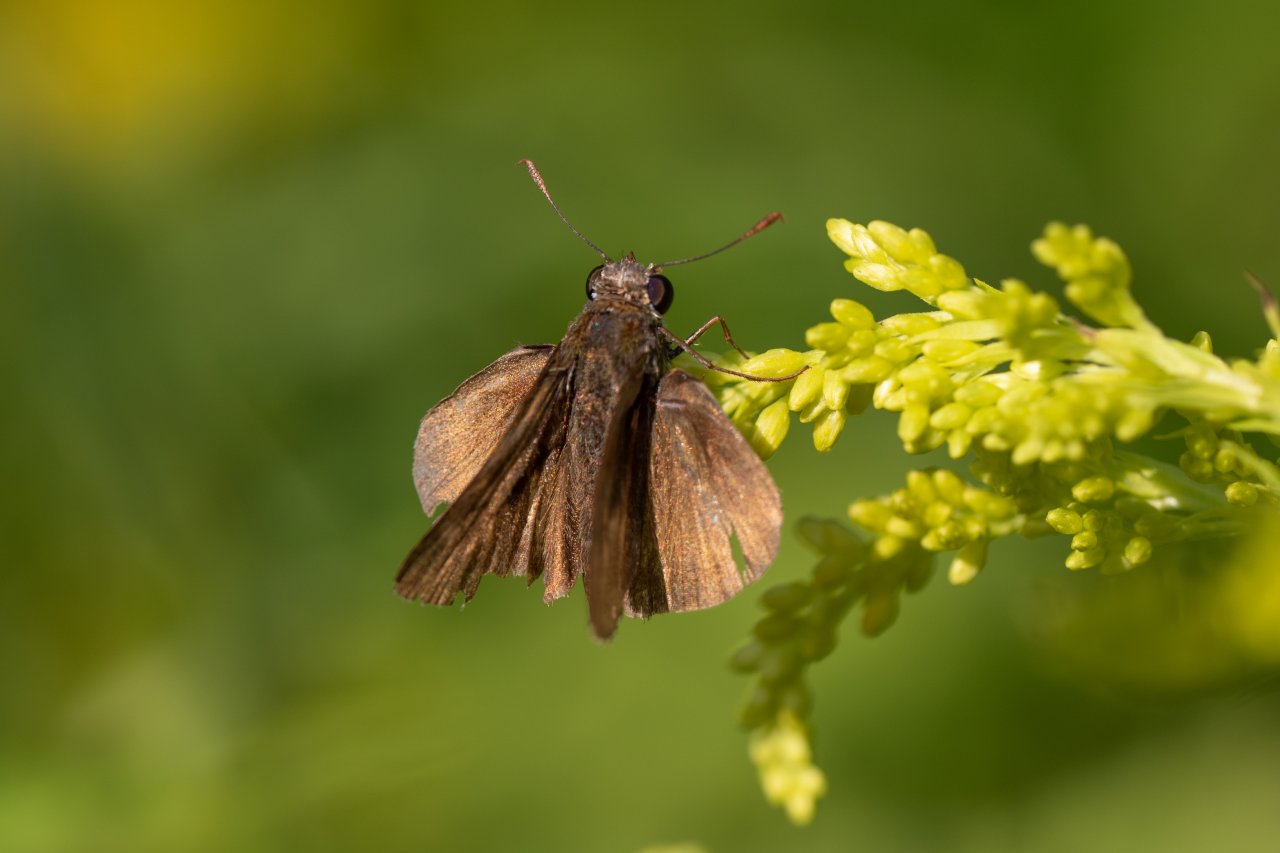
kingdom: Animalia
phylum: Arthropoda
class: Insecta
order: Lepidoptera
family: Hesperiidae
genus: Euphyes
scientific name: Euphyes vestris
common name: Dun Skipper
